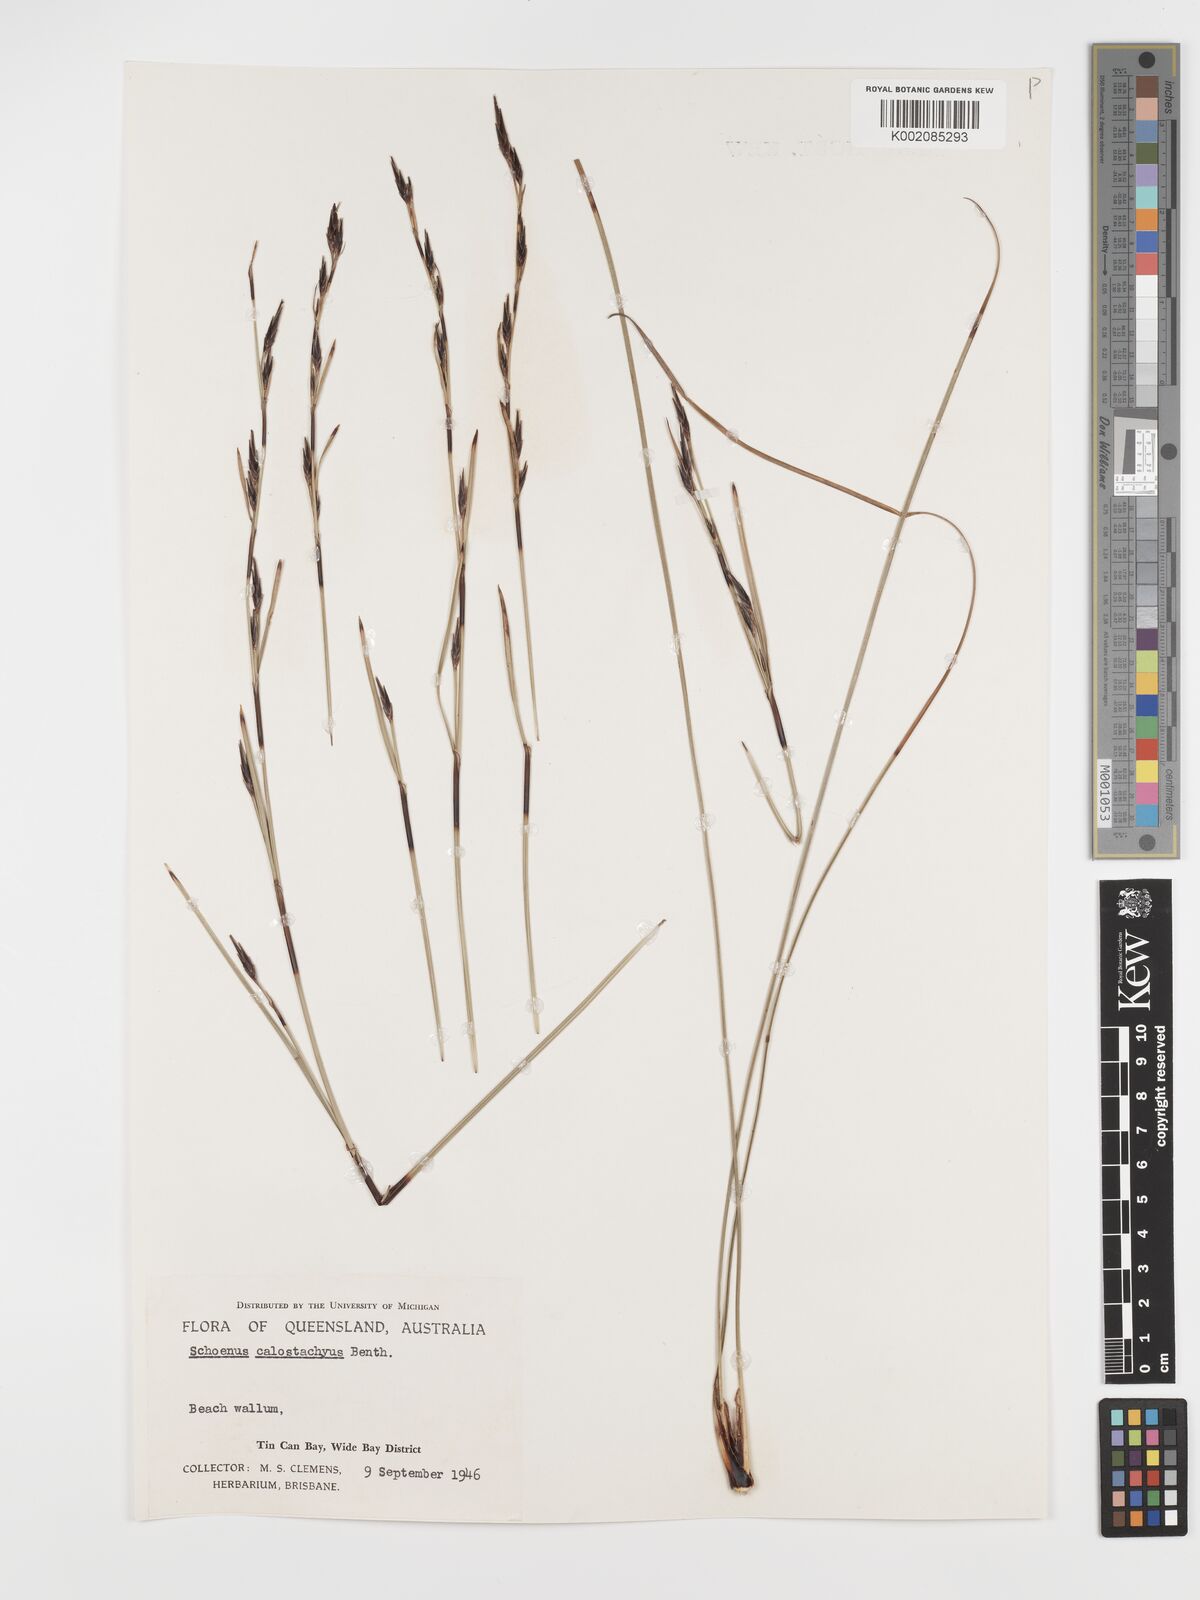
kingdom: Plantae
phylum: Tracheophyta
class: Liliopsida
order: Poales
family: Cyperaceae
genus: Schoenus
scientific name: Schoenus calostachyus
